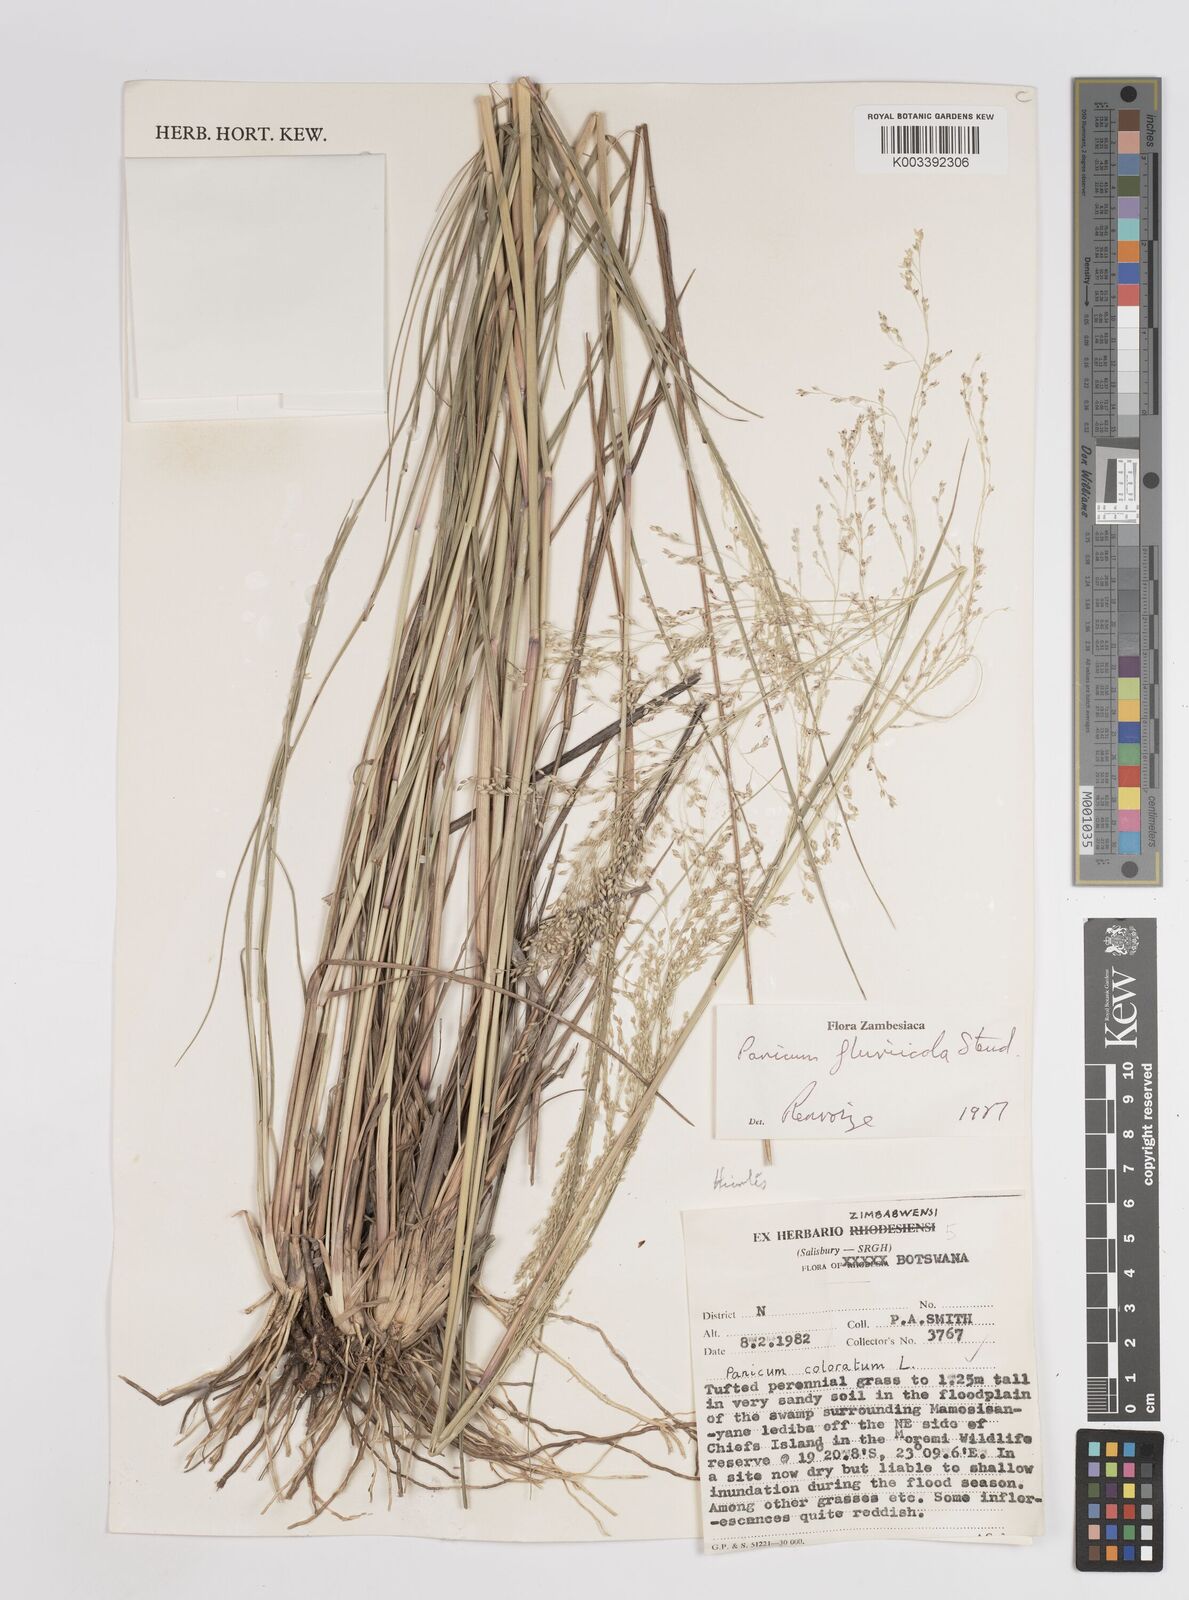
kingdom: Plantae
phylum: Tracheophyta
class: Liliopsida
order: Poales
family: Poaceae
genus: Panicum
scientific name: Panicum fluviicola
